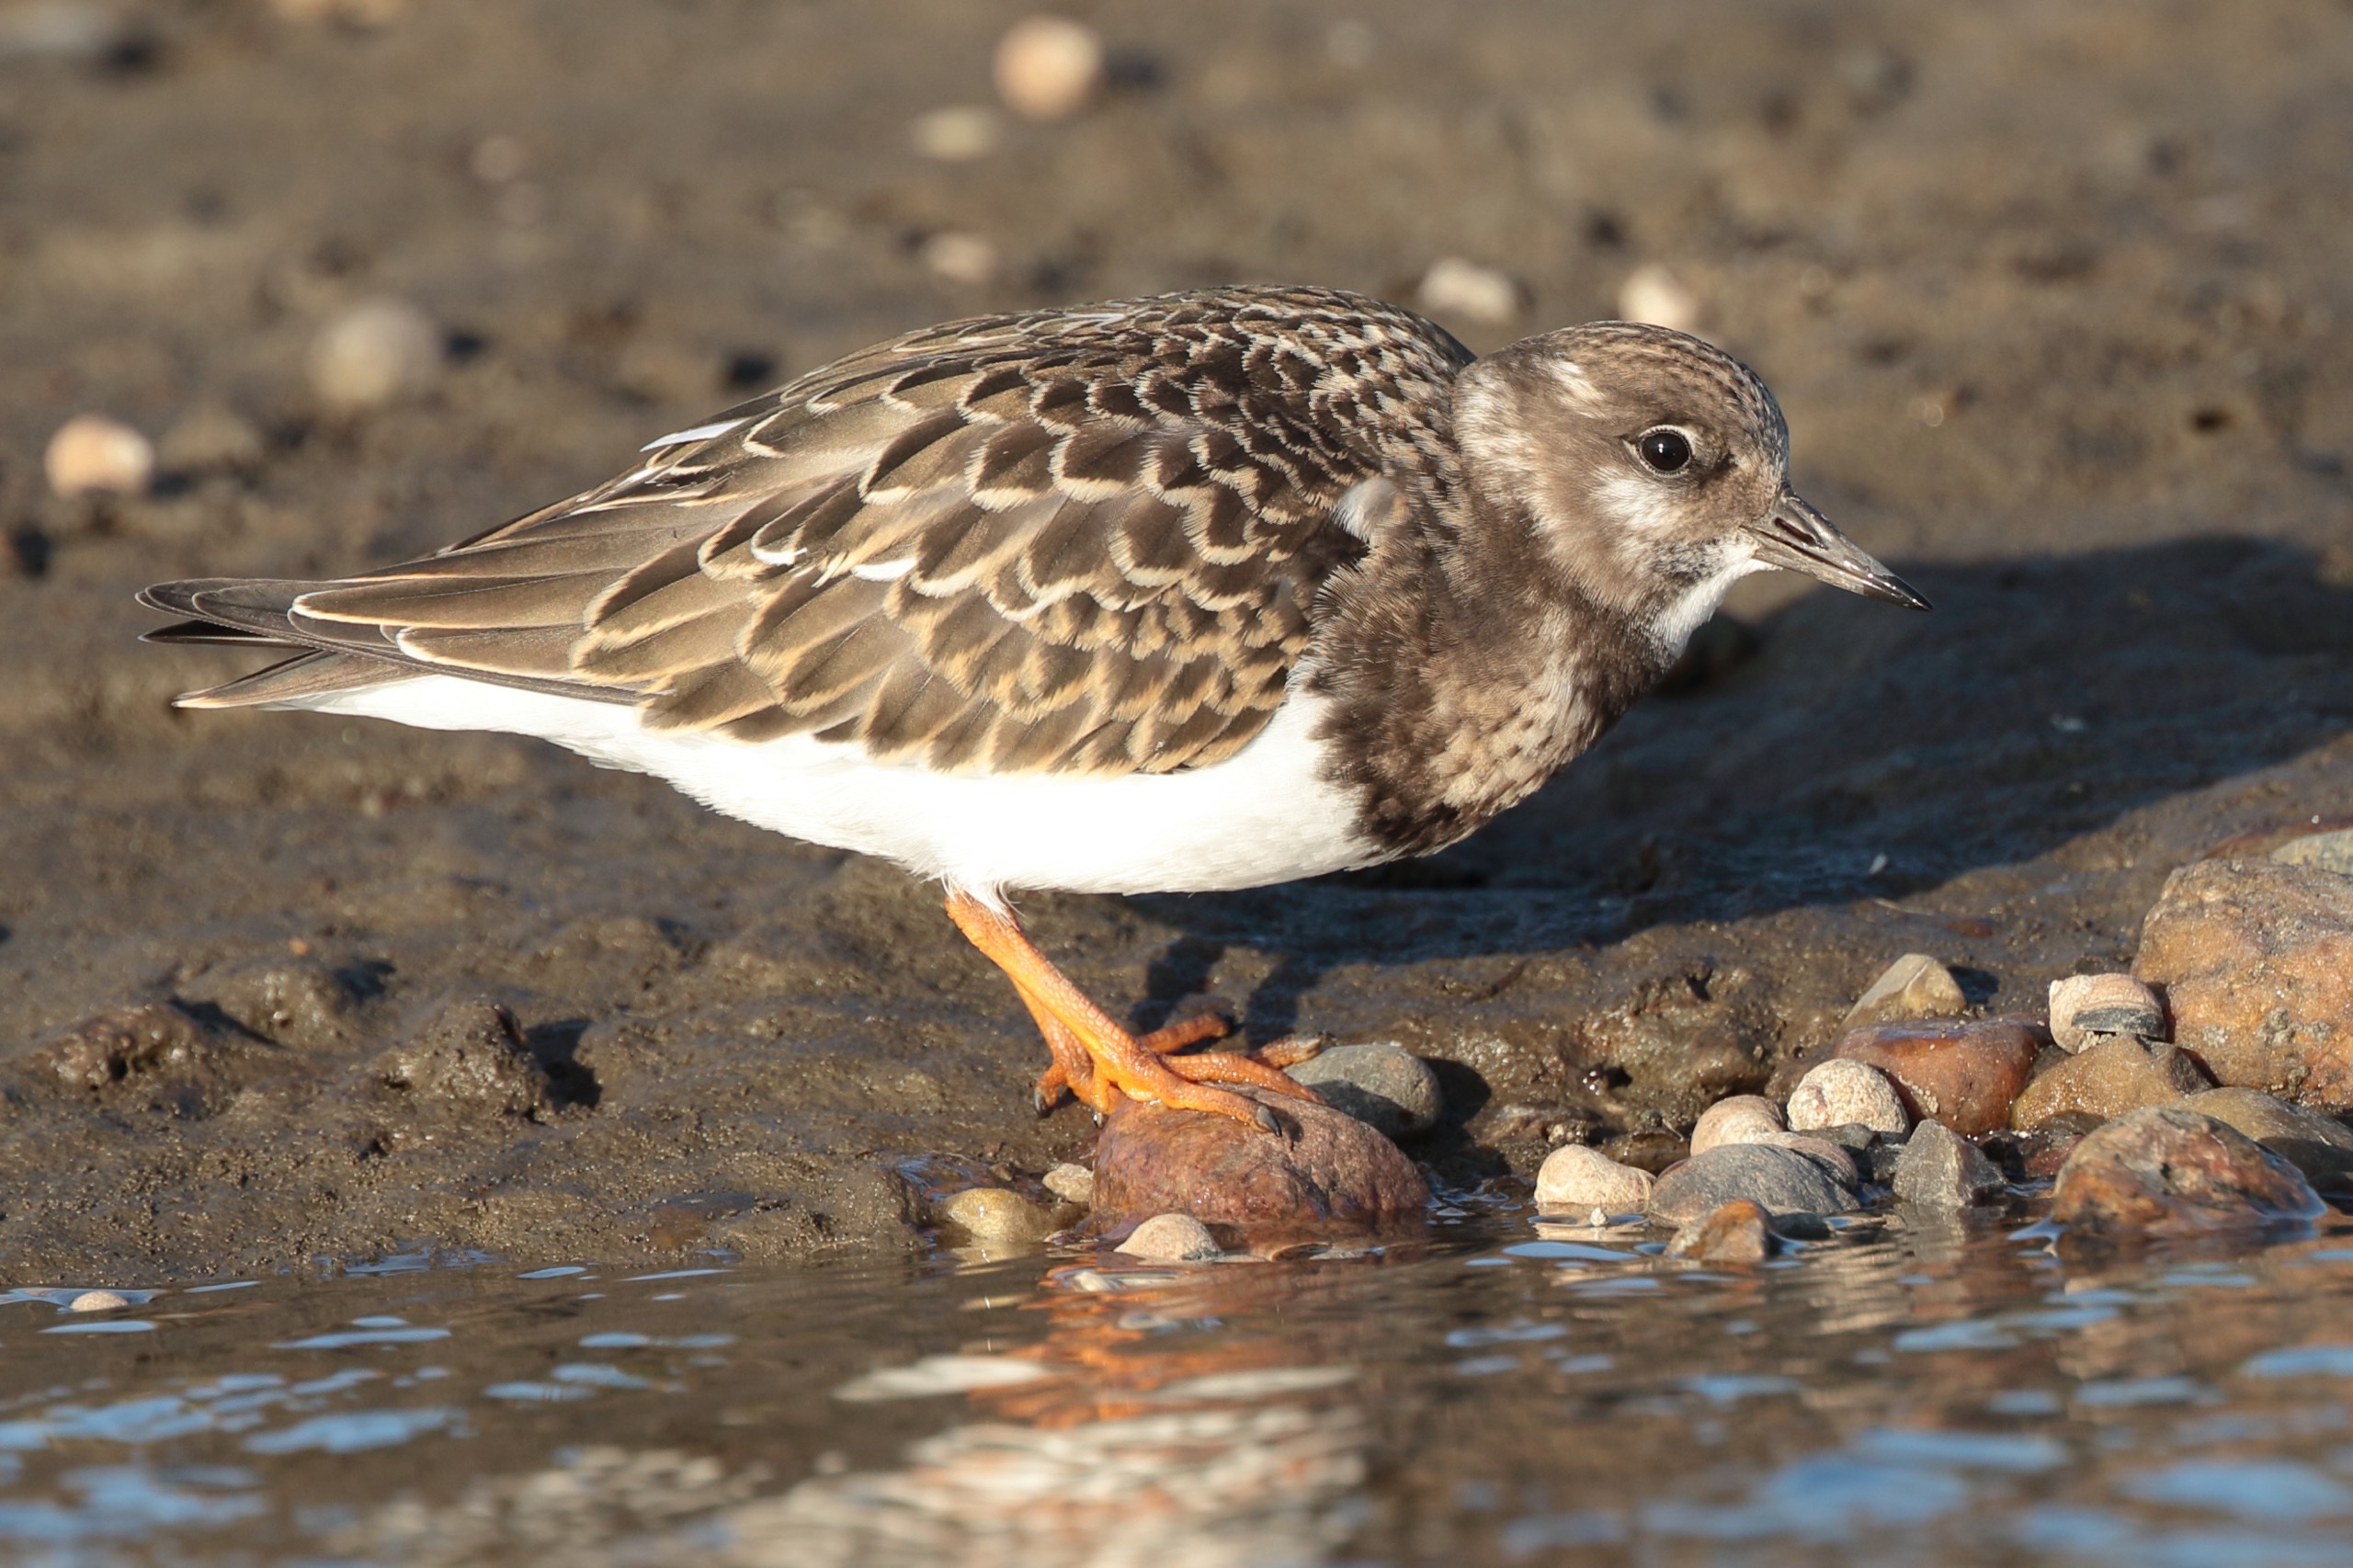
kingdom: Animalia
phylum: Chordata
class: Aves
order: Charadriiformes
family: Scolopacidae
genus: Arenaria
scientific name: Arenaria interpres
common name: Stenvender
